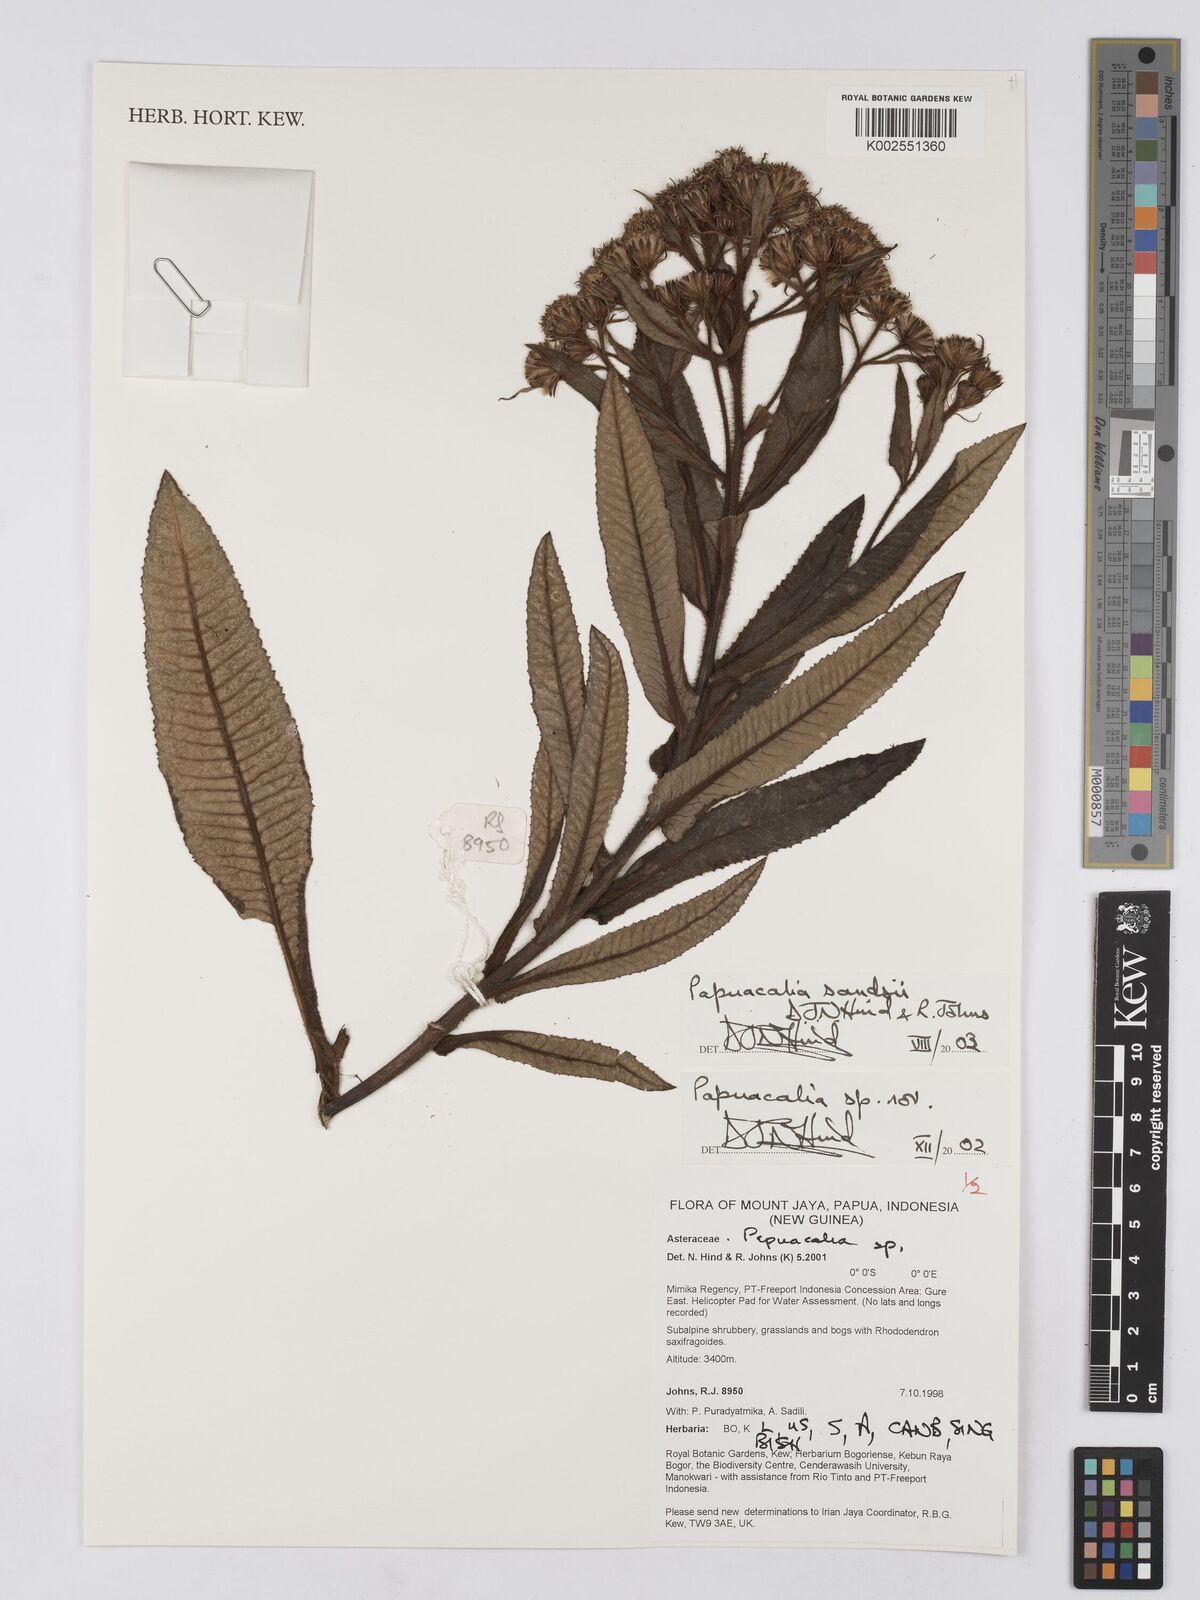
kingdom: Plantae
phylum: Tracheophyta
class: Magnoliopsida
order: Asterales
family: Asteraceae
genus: Papuacalia
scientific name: Papuacalia sandsii
